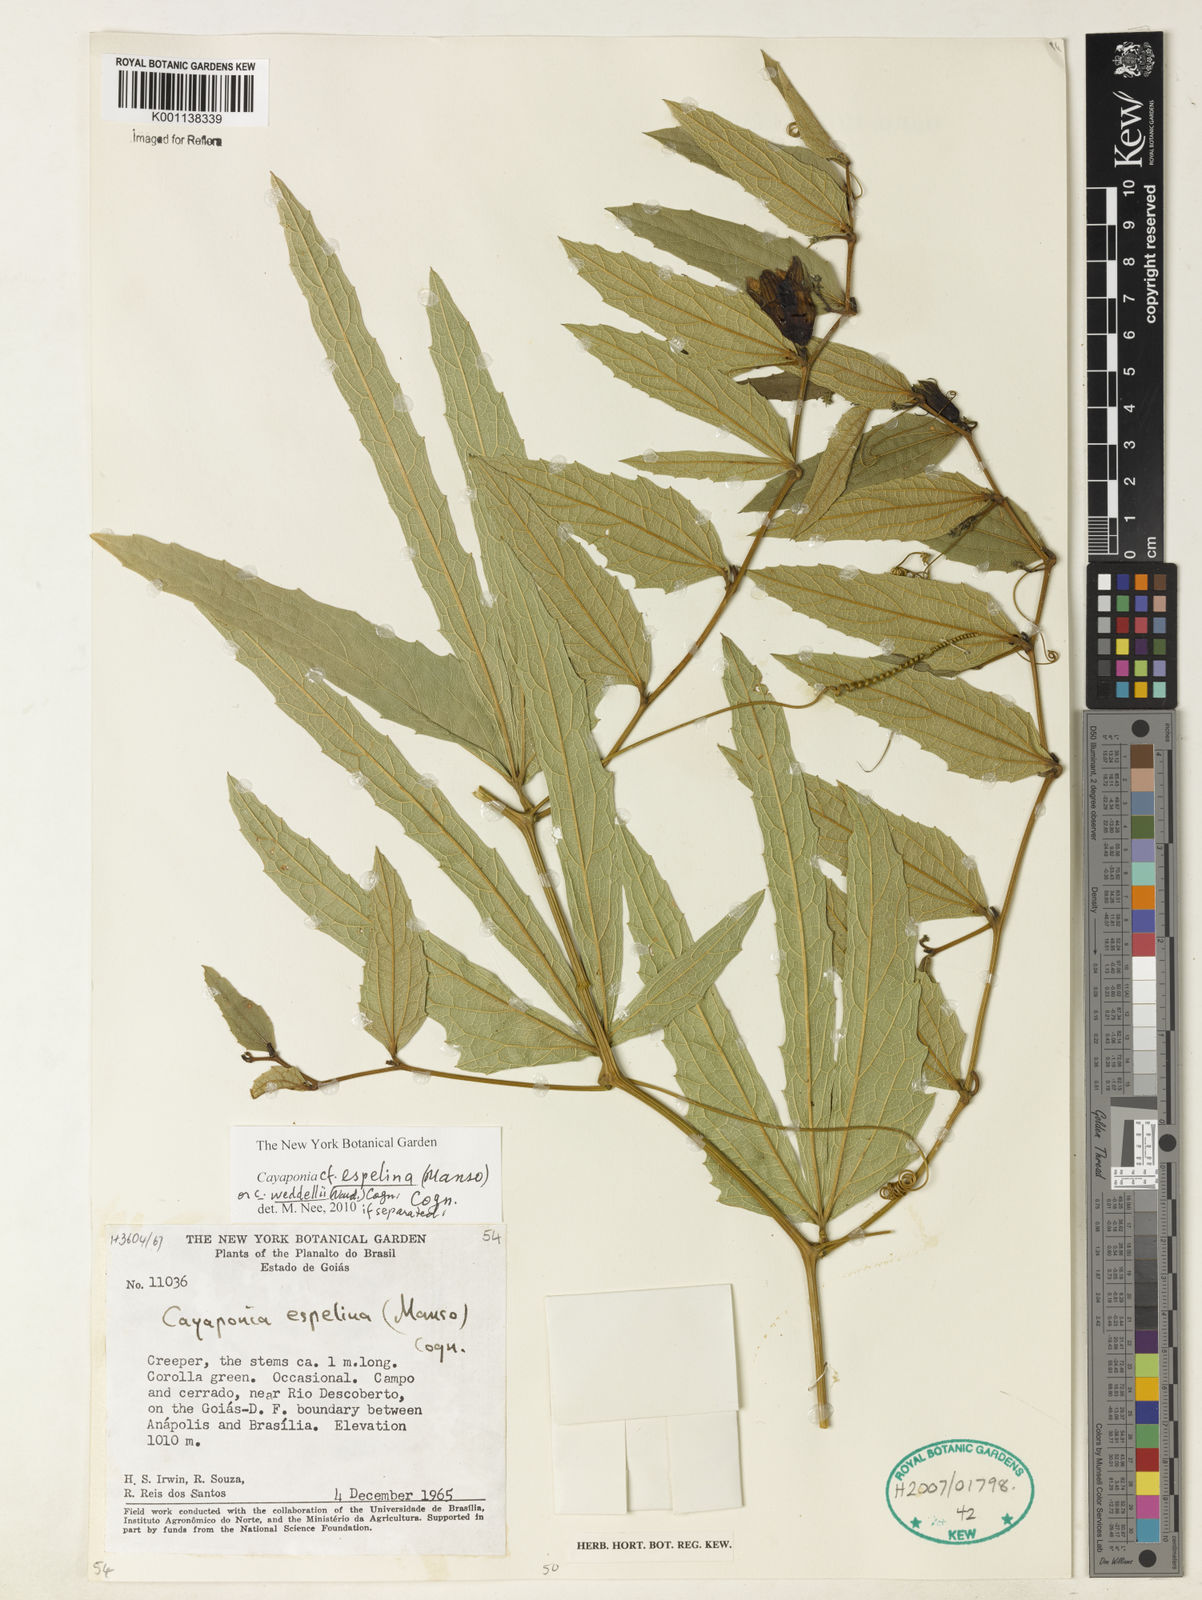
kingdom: Plantae
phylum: Tracheophyta
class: Magnoliopsida
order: Cucurbitales
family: Cucurbitaceae
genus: Cayaponia
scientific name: Cayaponia espelina
